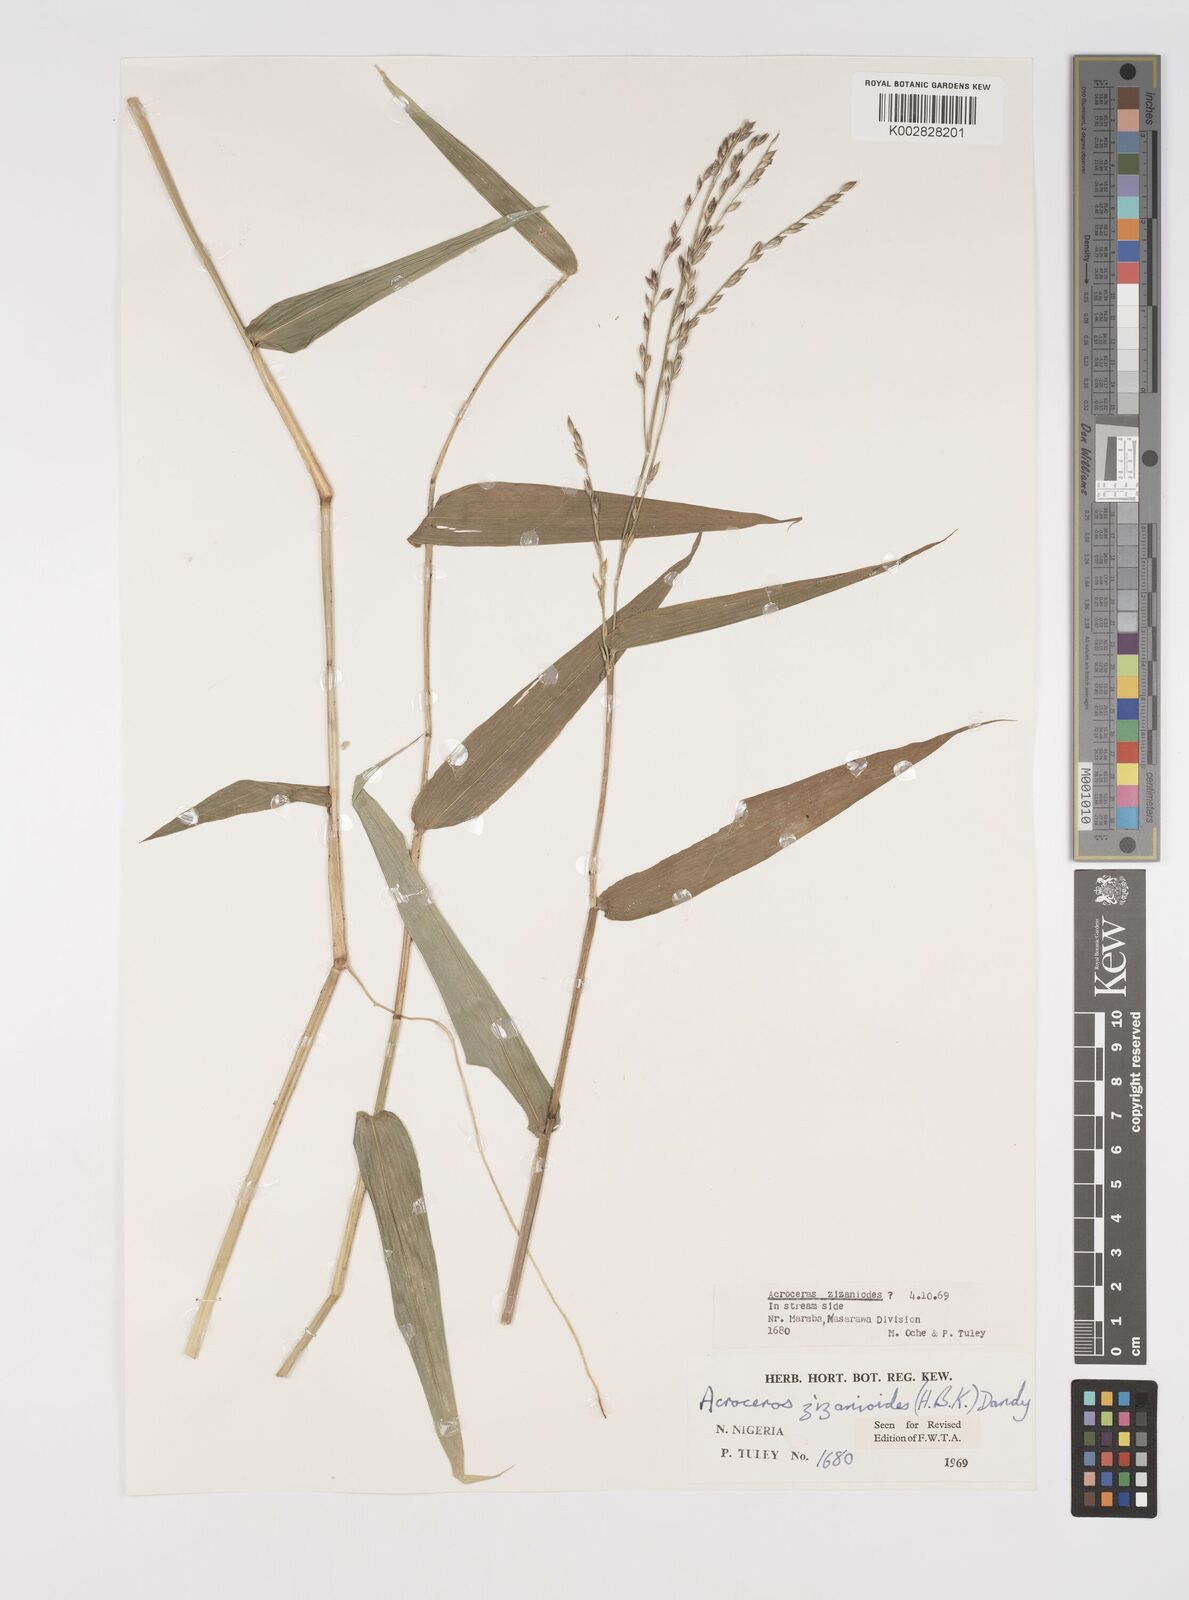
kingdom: Plantae
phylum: Tracheophyta
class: Liliopsida
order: Poales
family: Poaceae
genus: Acroceras
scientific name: Acroceras zizanioides
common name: Oat grass
